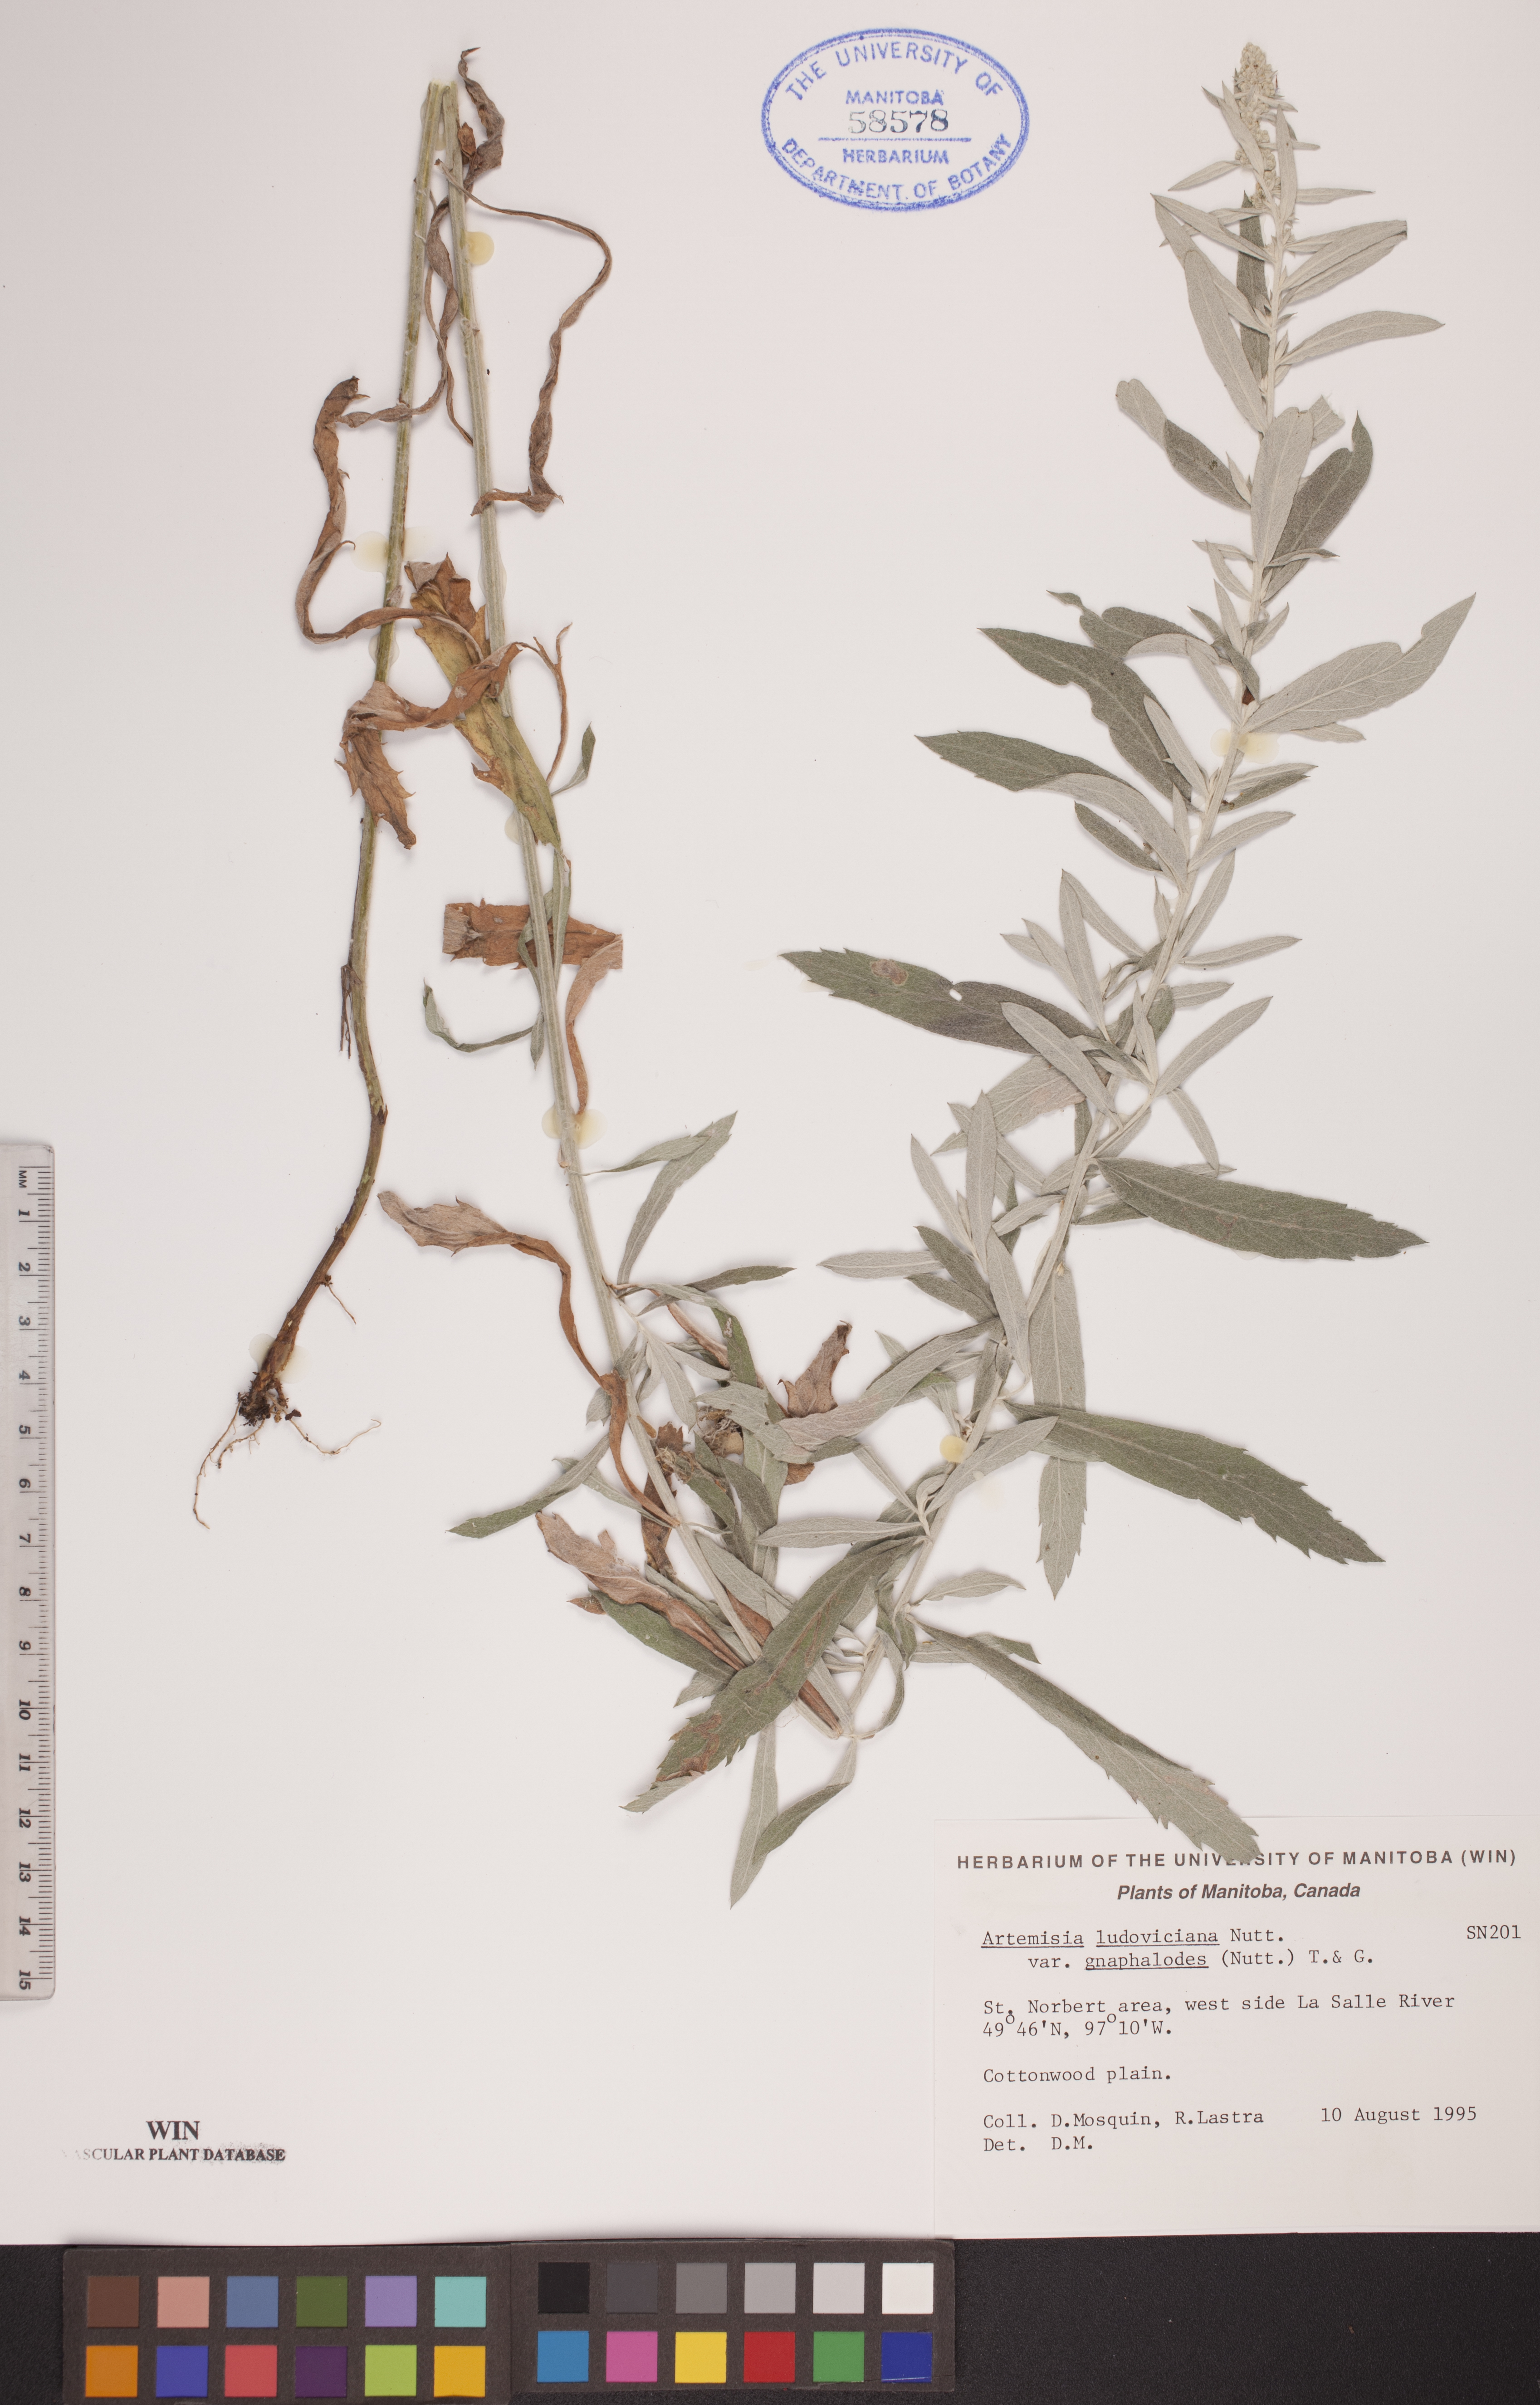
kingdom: Plantae
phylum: Tracheophyta
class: Magnoliopsida
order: Asterales
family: Asteraceae
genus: Artemisia
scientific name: Artemisia ludoviciana
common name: Western mugwort
